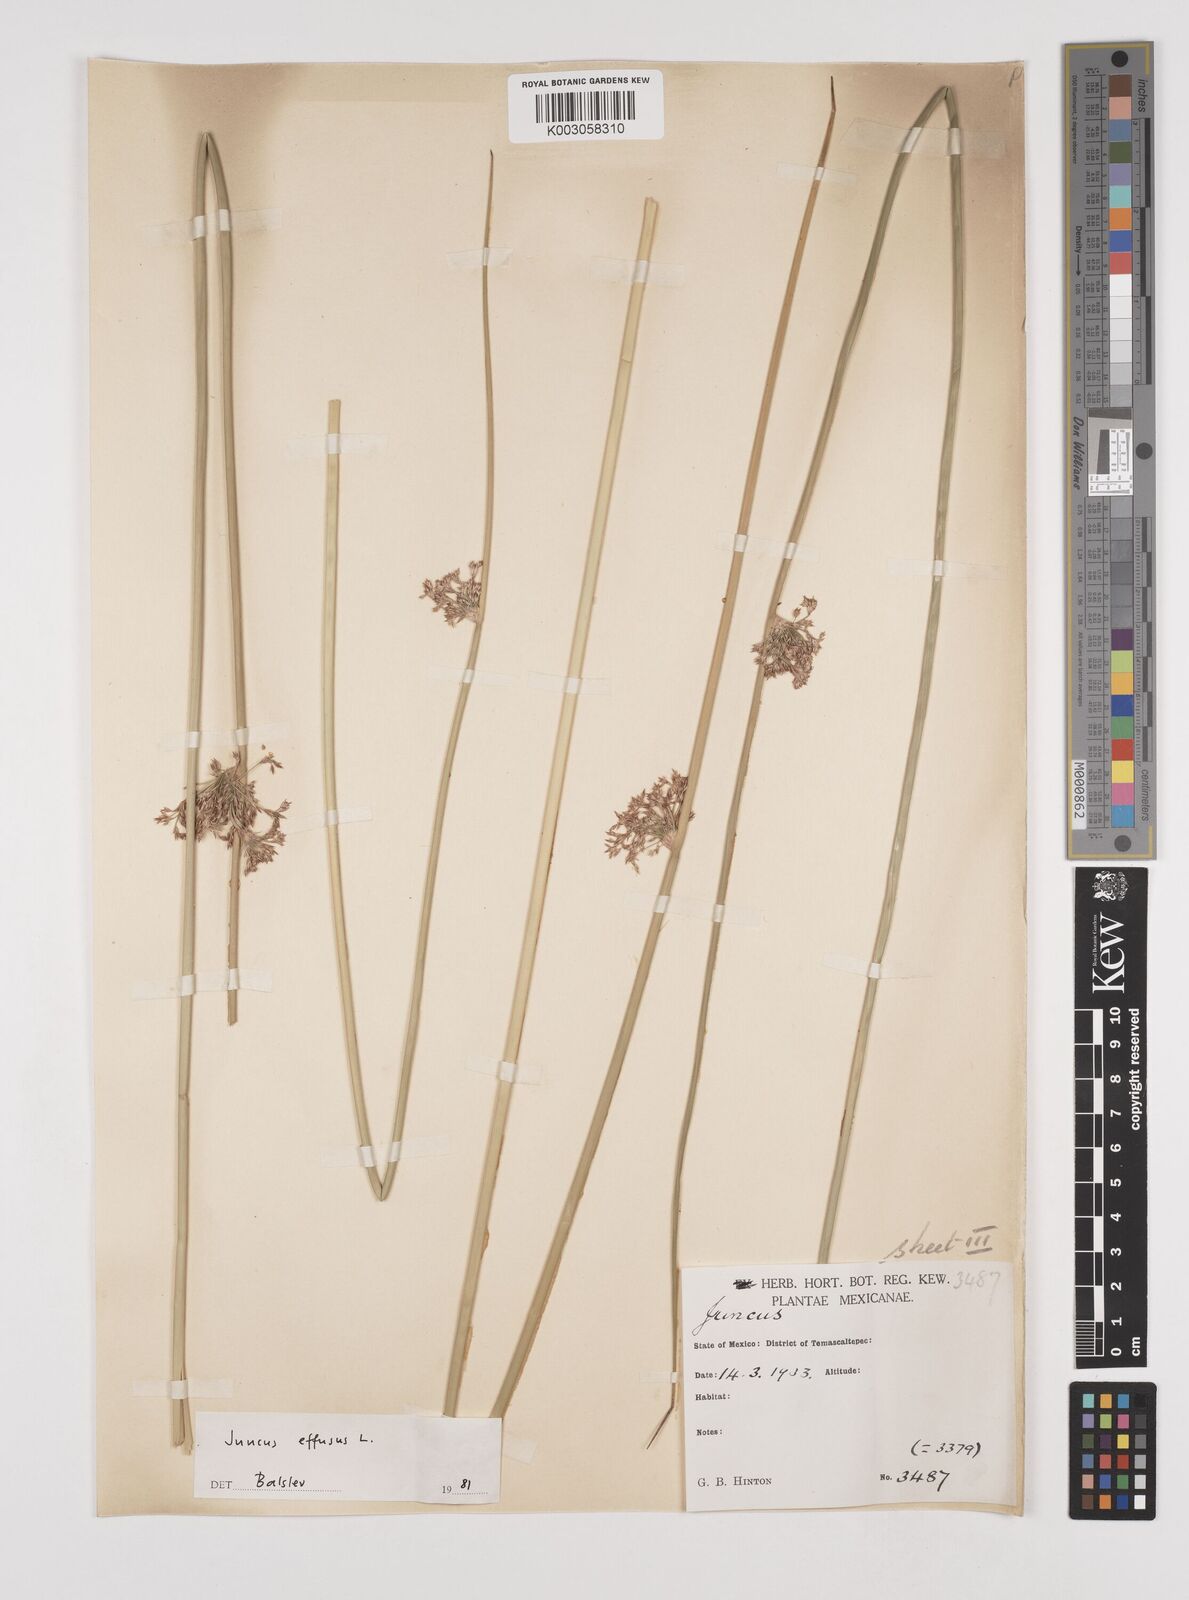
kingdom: Plantae
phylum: Tracheophyta
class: Liliopsida
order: Poales
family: Juncaceae
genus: Juncus
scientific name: Juncus effusus
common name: Soft rush
